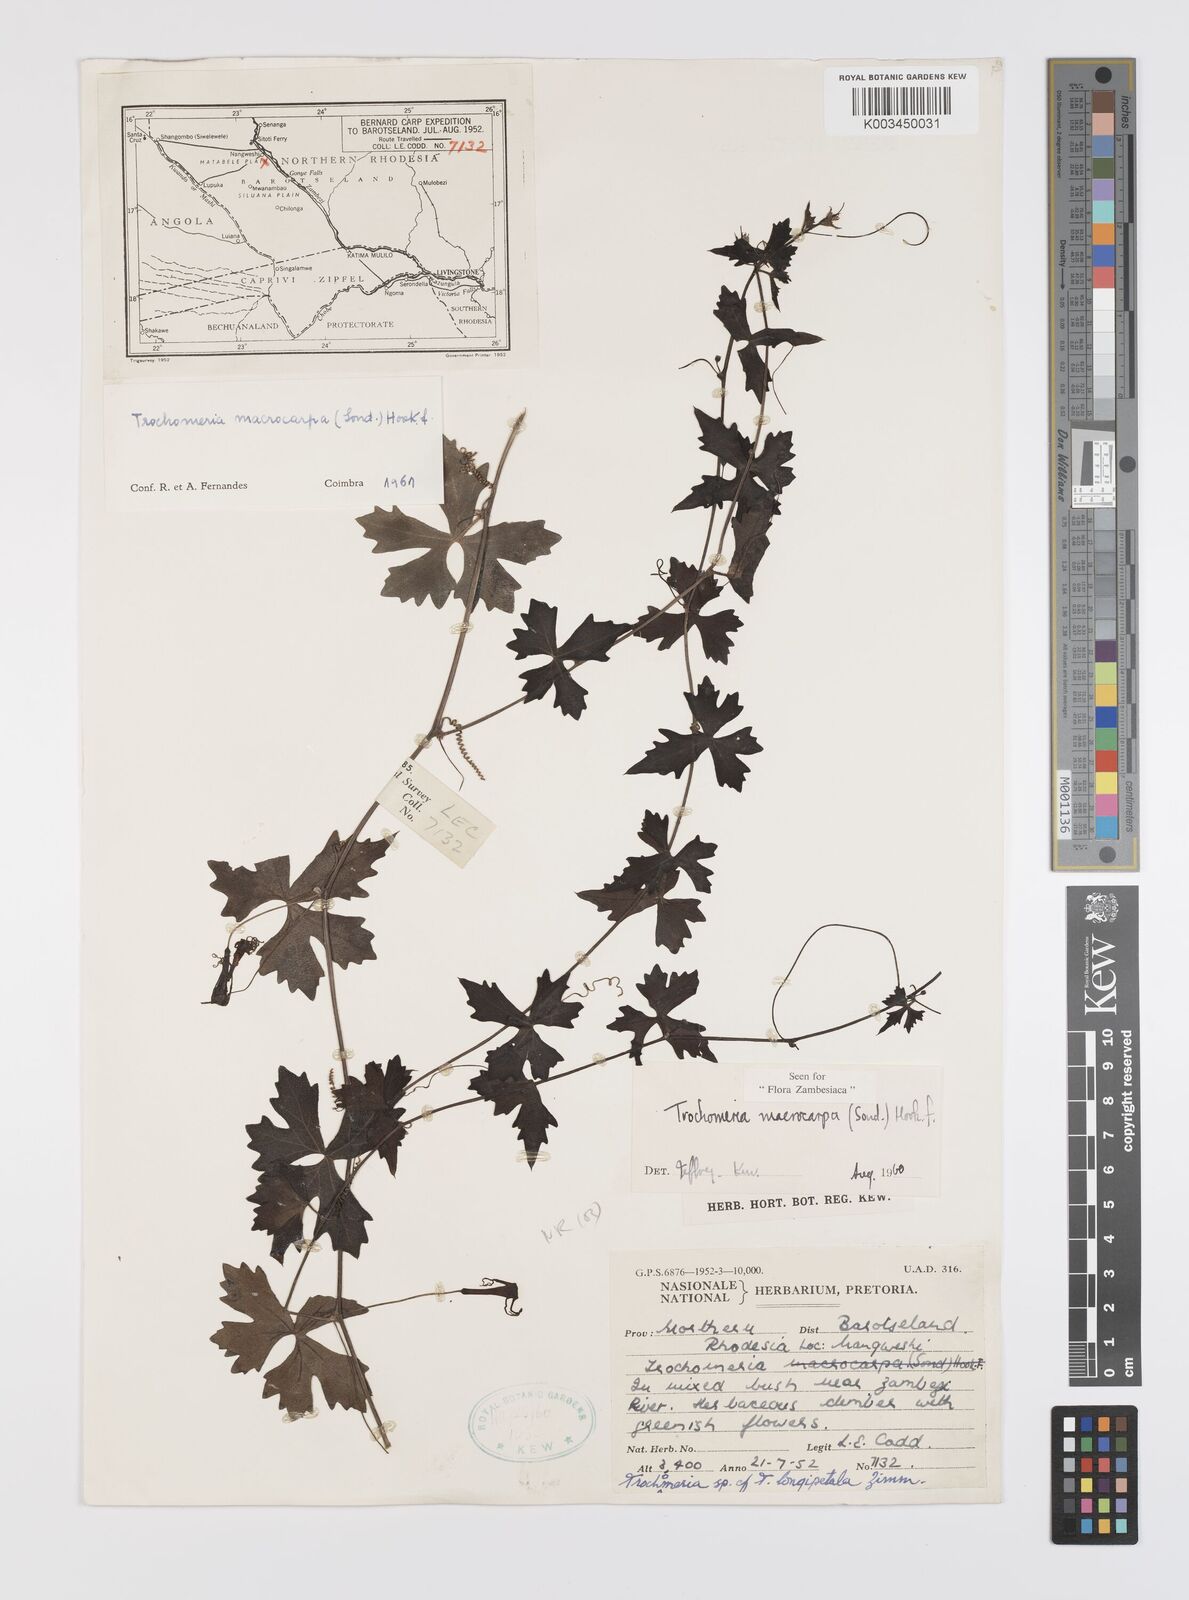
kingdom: Plantae
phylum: Tracheophyta
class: Magnoliopsida
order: Cucurbitales
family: Cucurbitaceae
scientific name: Cucurbitaceae
